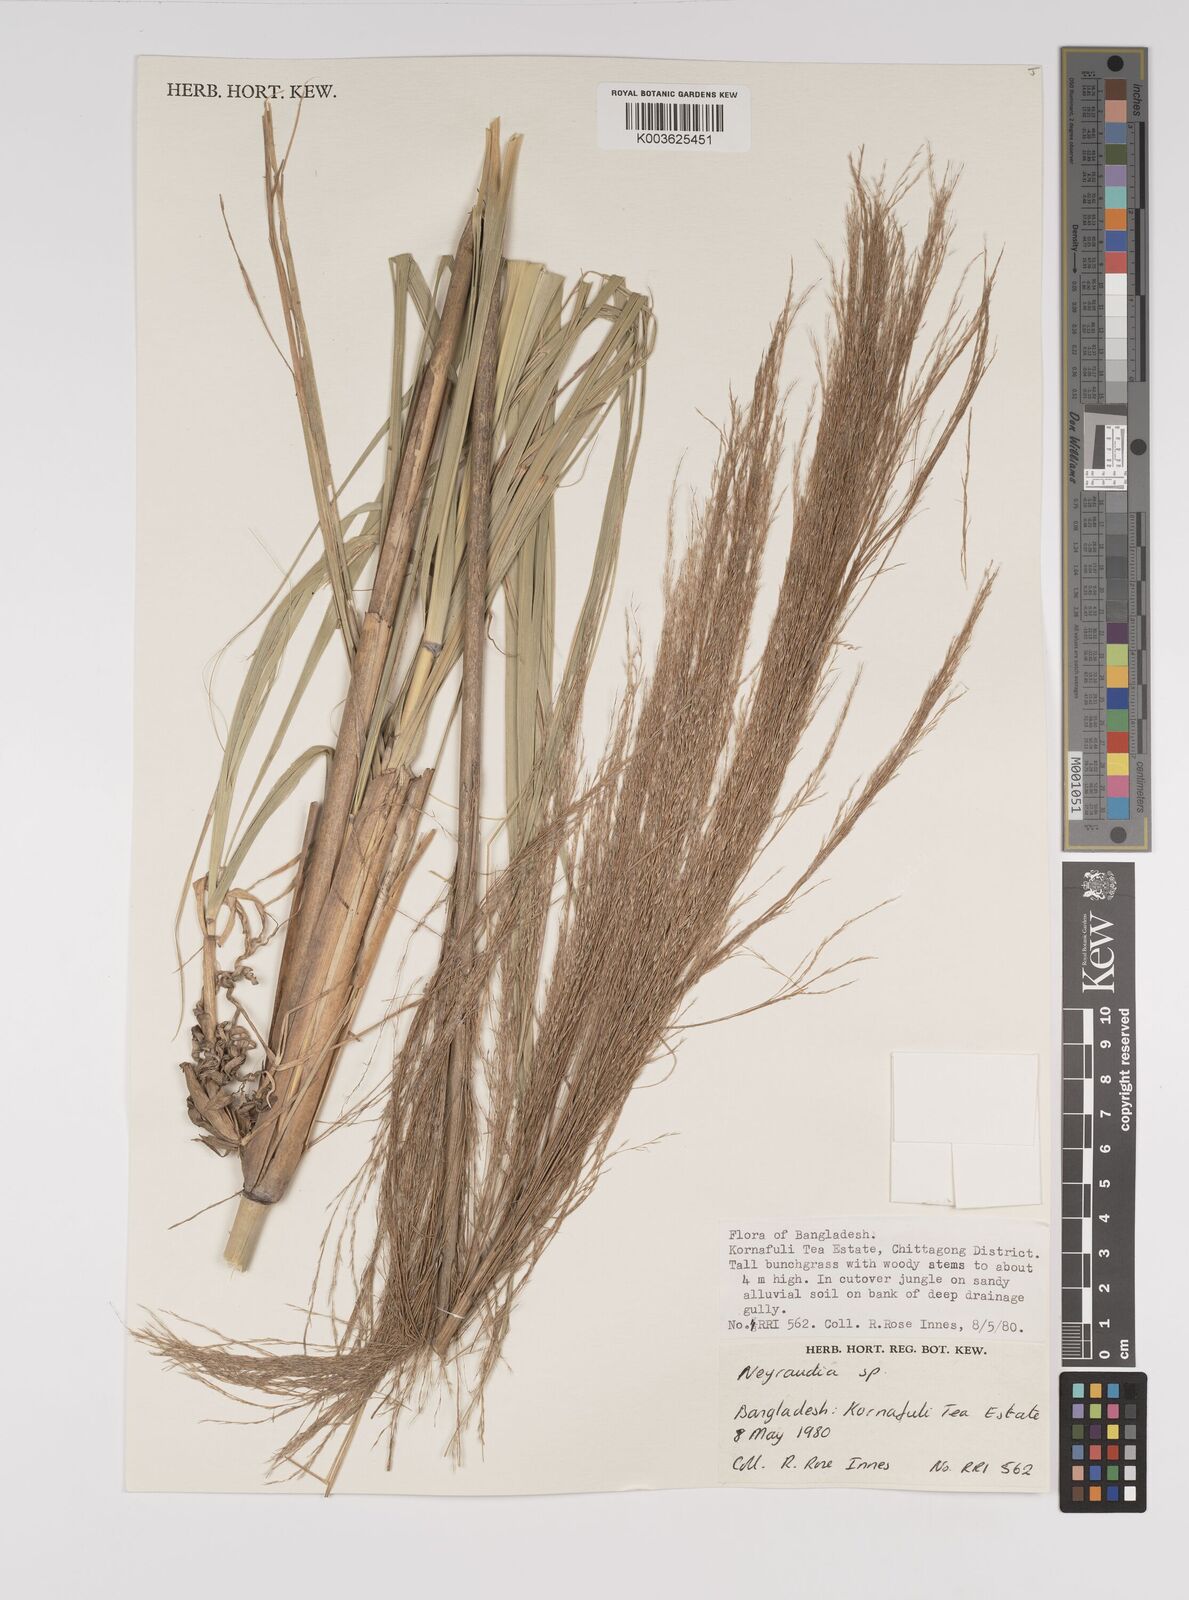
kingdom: Plantae
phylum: Tracheophyta
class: Liliopsida
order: Poales
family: Poaceae
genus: Neyraudia
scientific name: Neyraudia reynaudiana
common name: Silkreed
